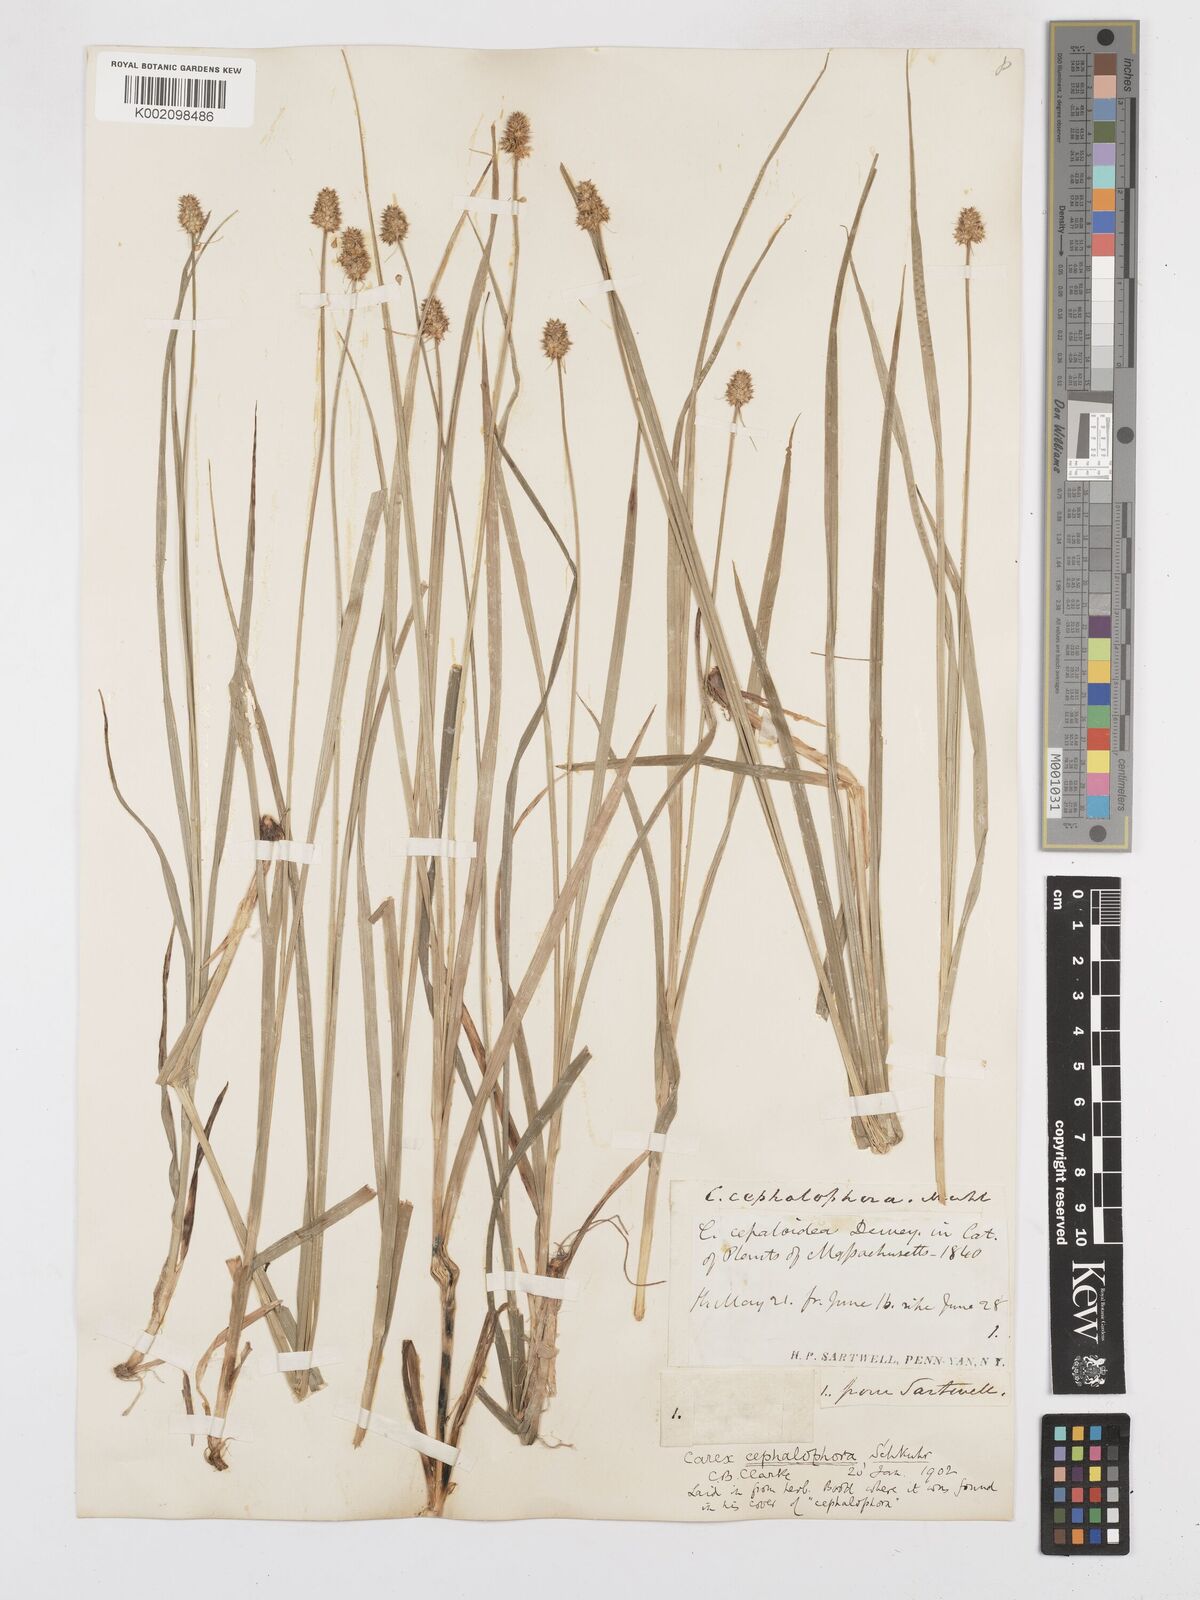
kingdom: Plantae
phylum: Tracheophyta
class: Liliopsida
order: Poales
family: Cyperaceae
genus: Carex
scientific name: Carex cephalophora
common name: Oval-headed sedge
